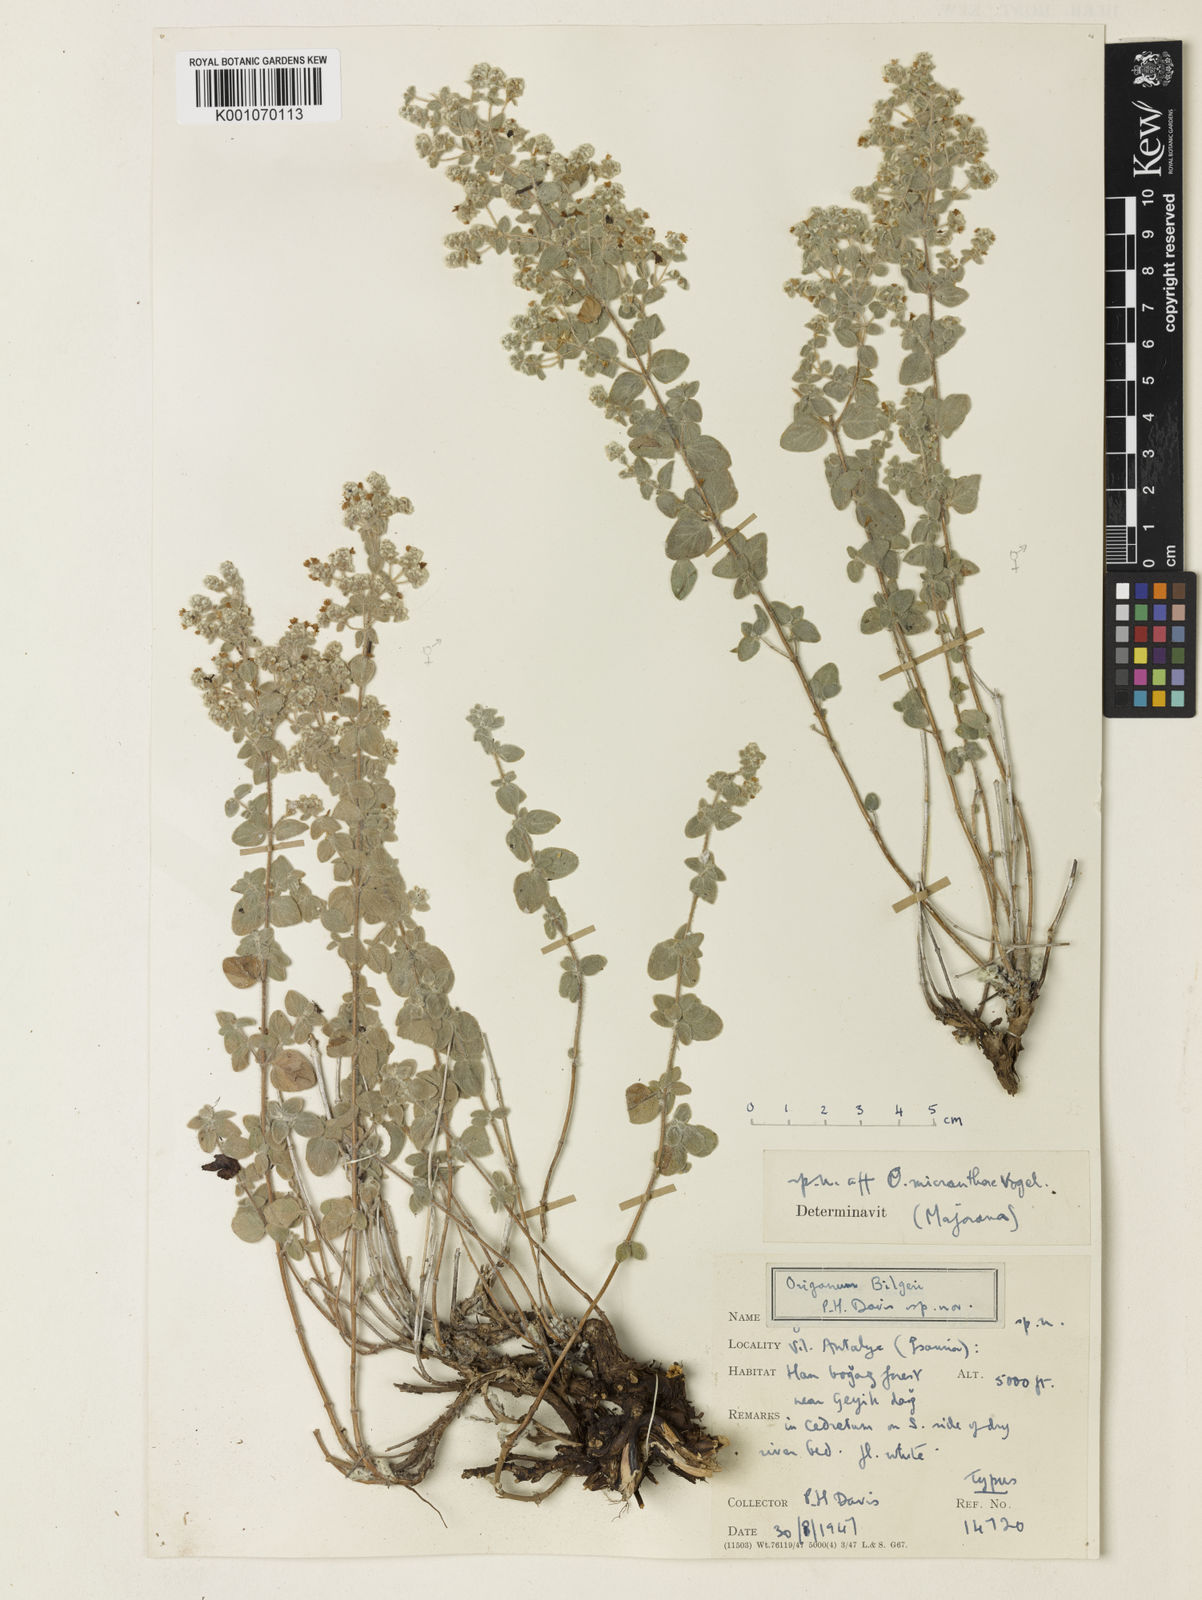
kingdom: Plantae
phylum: Tracheophyta
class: Magnoliopsida
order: Lamiales
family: Lamiaceae
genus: Origanum
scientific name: Origanum bilgeri
